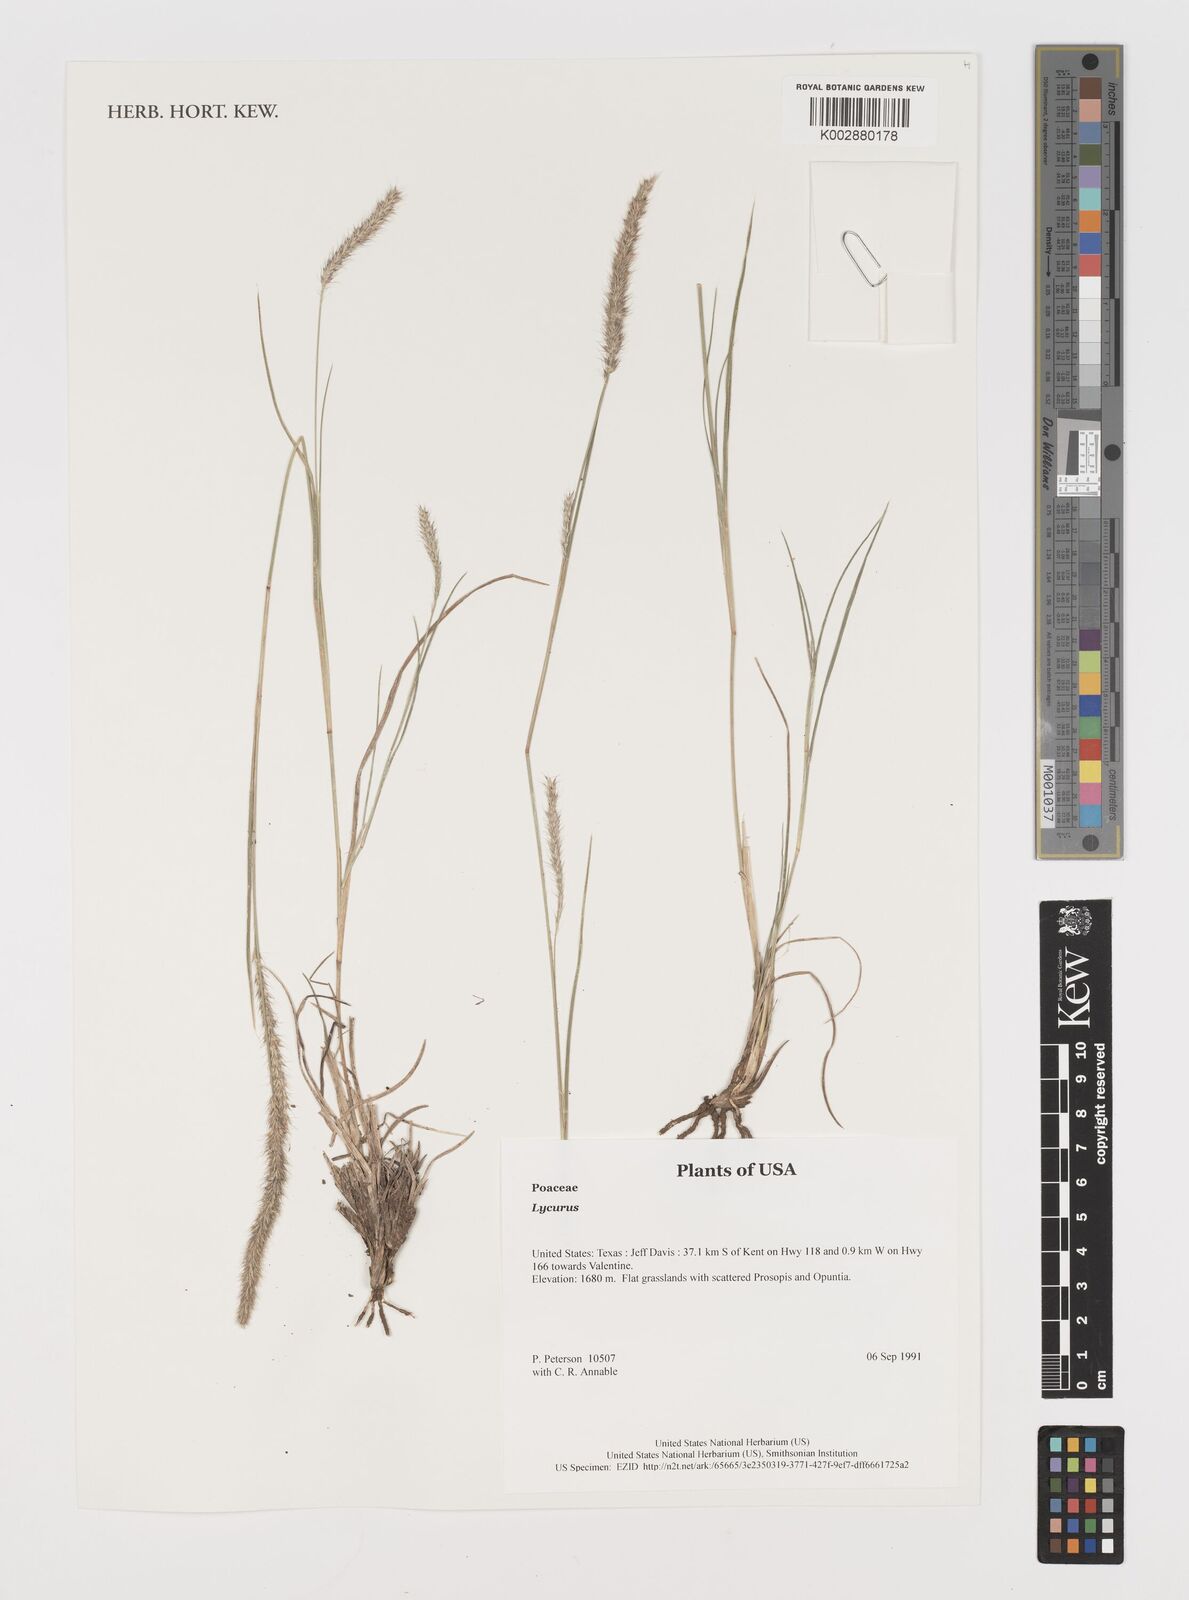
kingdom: Plantae
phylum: Tracheophyta
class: Liliopsida
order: Poales
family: Poaceae
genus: Muhlenbergia
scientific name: Muhlenbergia alopecuroides
